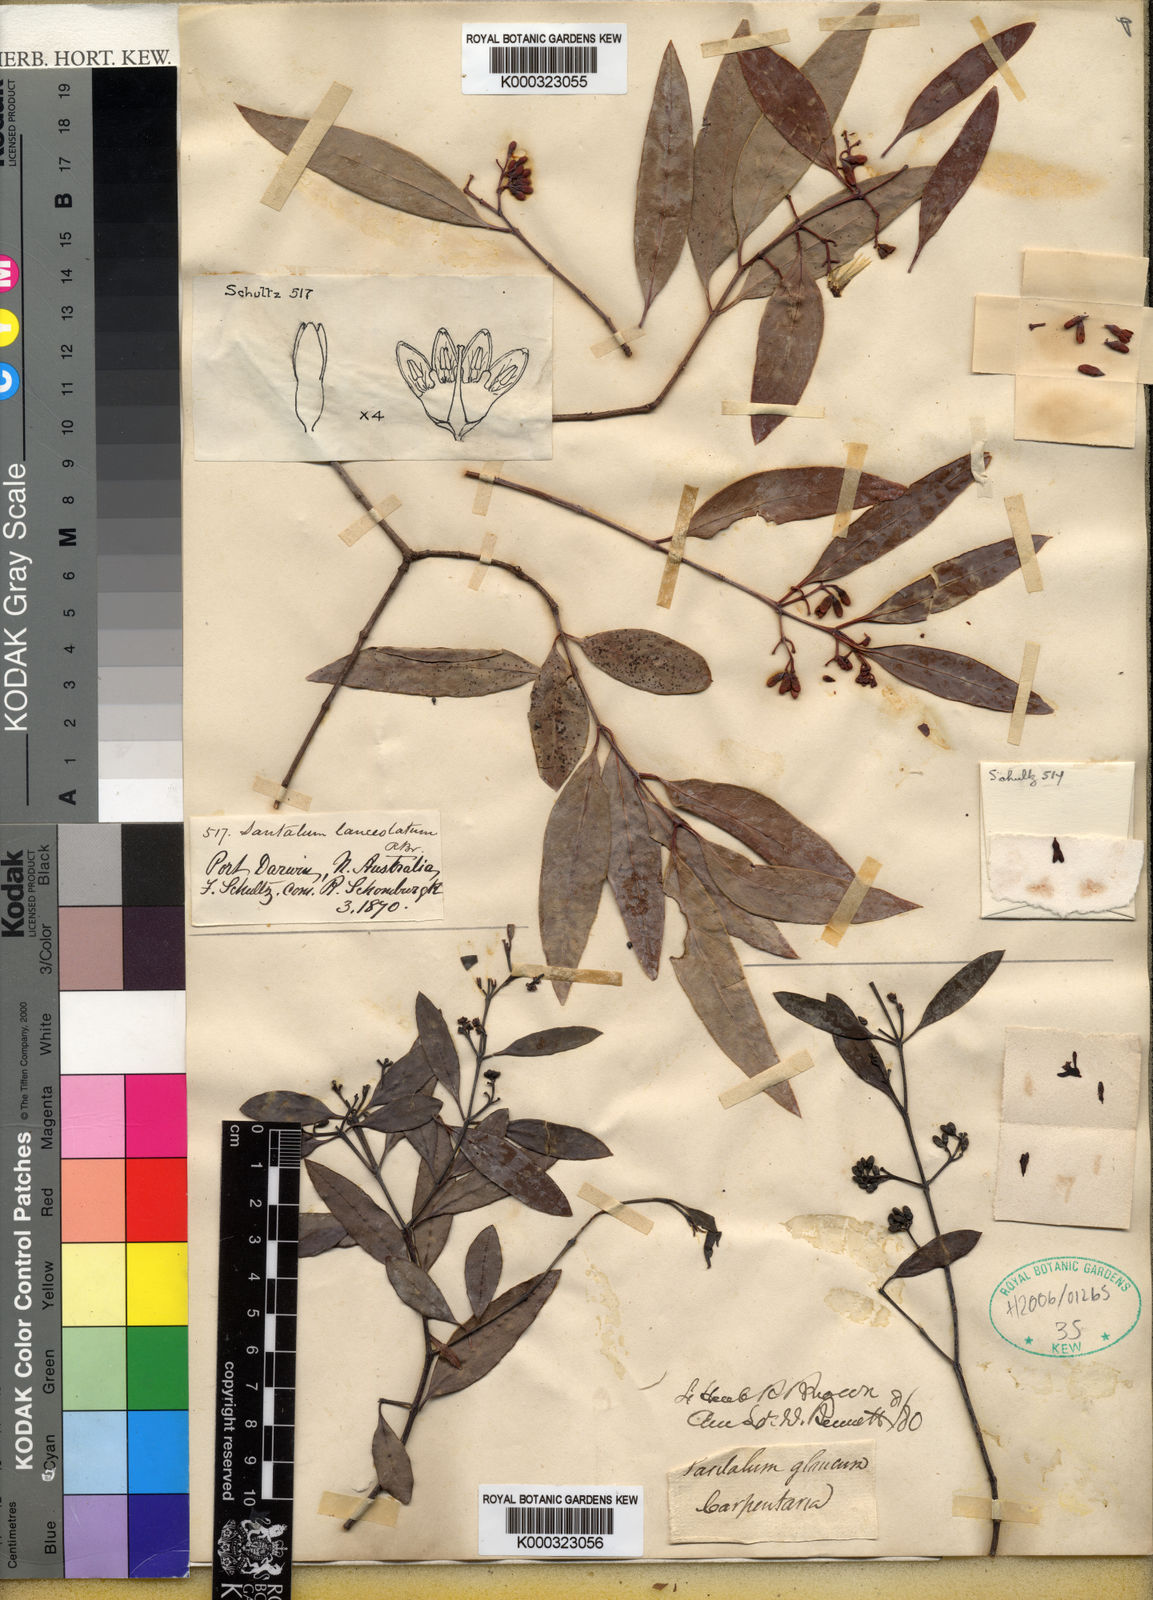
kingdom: Plantae
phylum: Tracheophyta
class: Magnoliopsida
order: Santalales
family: Santalaceae
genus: Santalum
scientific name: Santalum lanceolatum
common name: Ankwerley
